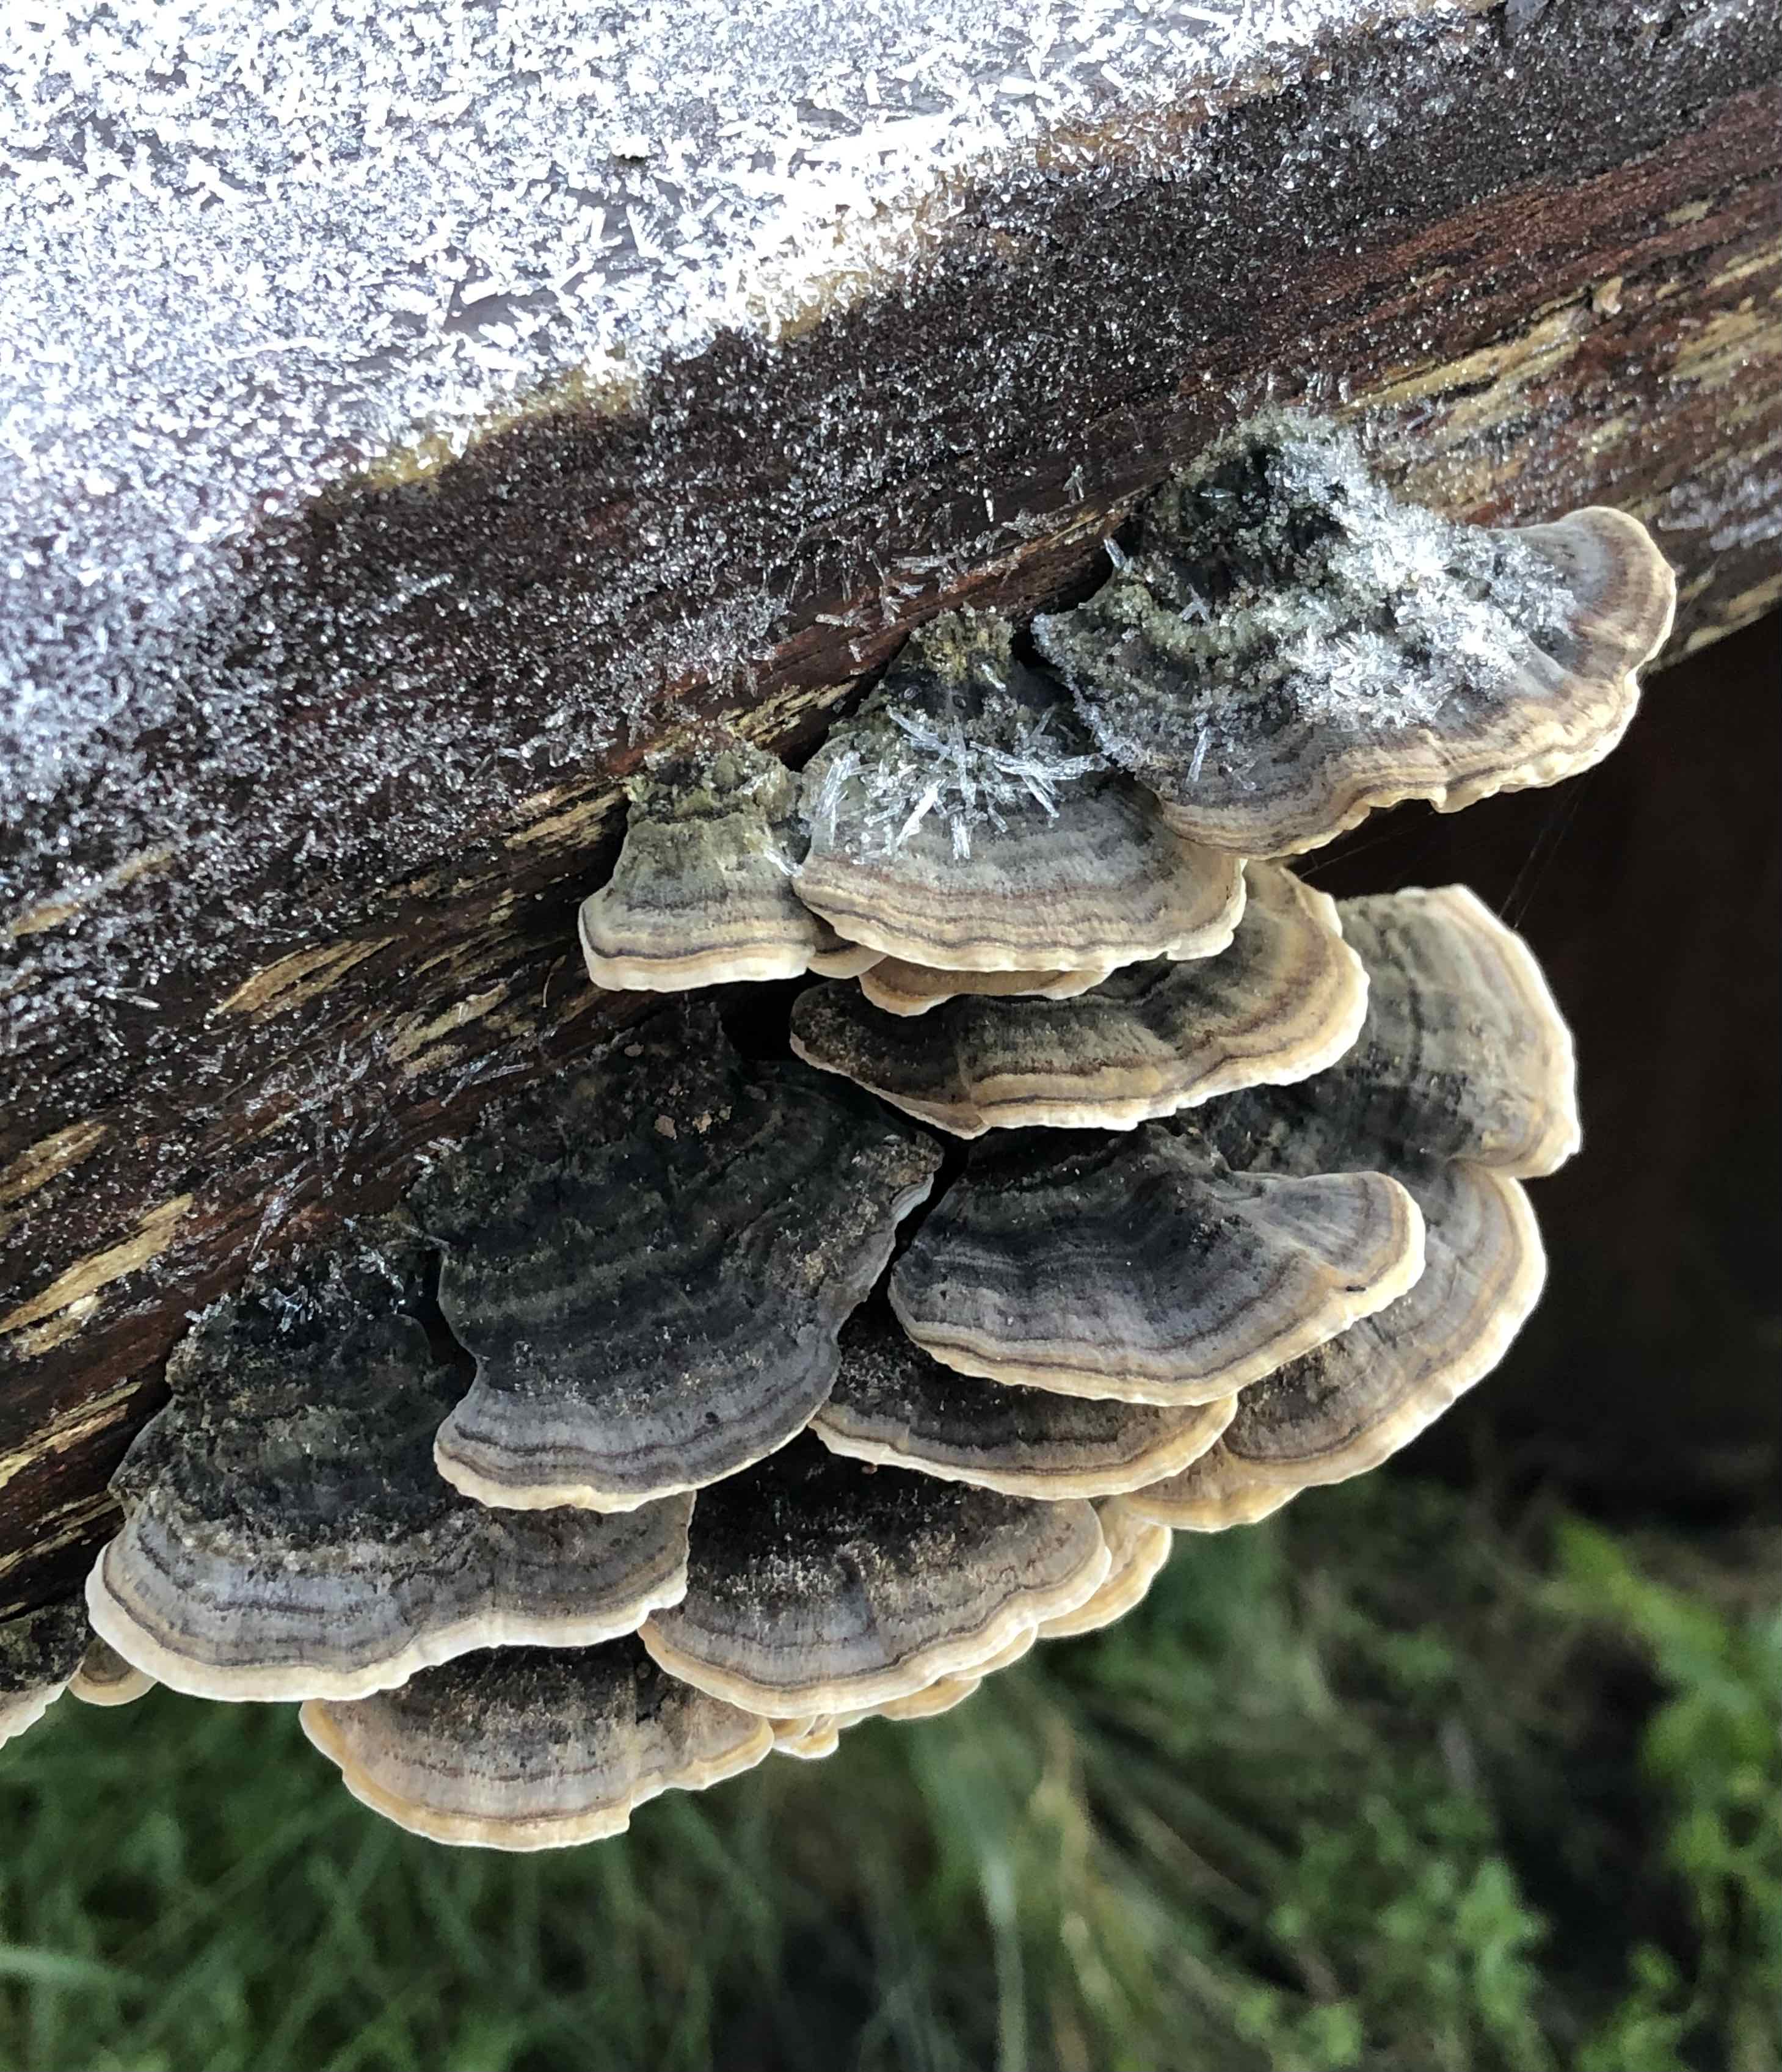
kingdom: Fungi
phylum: Basidiomycota
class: Agaricomycetes
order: Polyporales
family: Polyporaceae
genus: Trametes
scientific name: Trametes versicolor
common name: broget læderporesvamp
